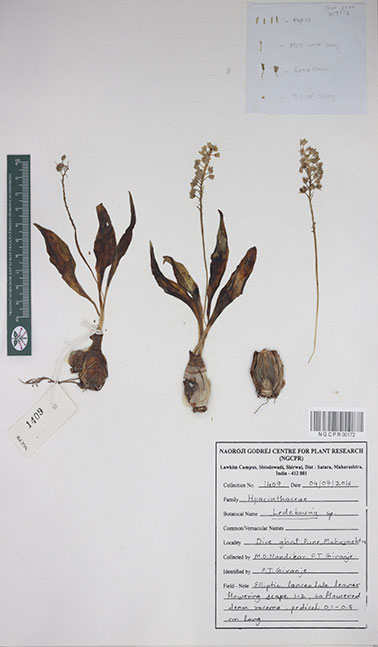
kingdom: Plantae
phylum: Tracheophyta
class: Liliopsida
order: Asparagales
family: Asparagaceae
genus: Ledebouria
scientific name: Ledebouria
